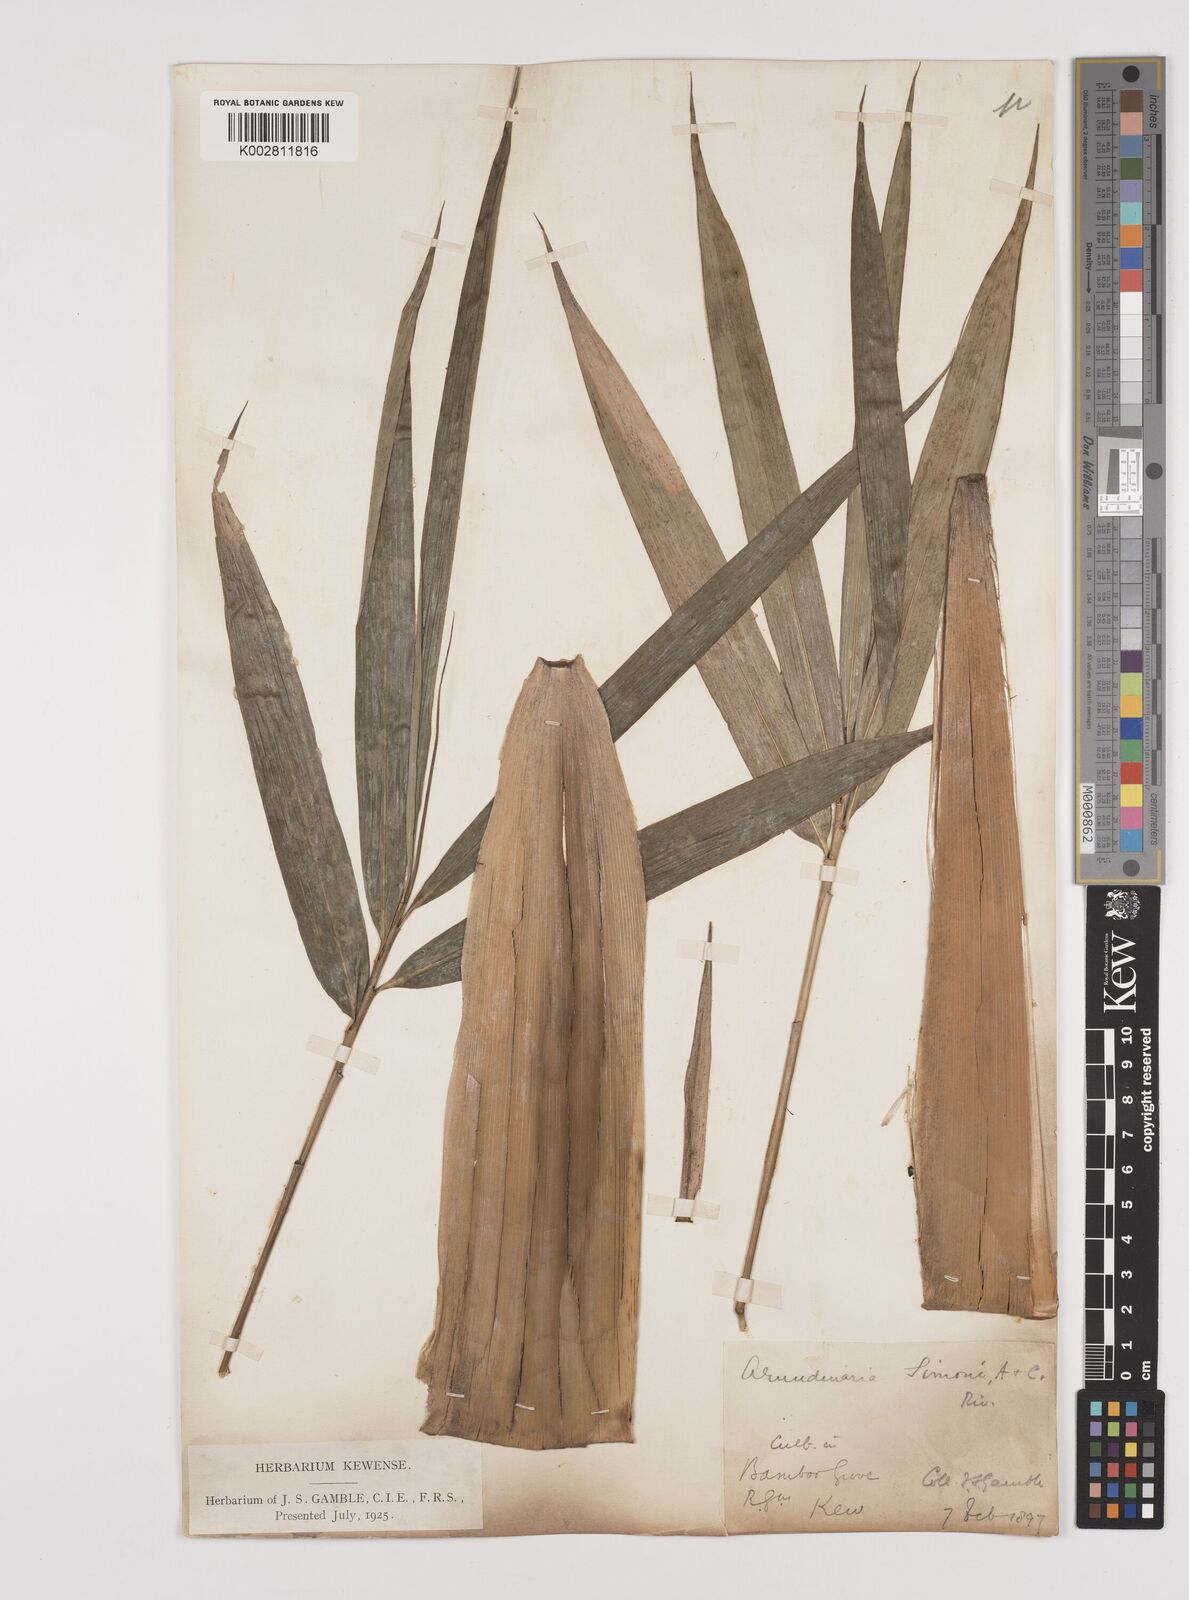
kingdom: Plantae
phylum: Tracheophyta
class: Liliopsida
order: Poales
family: Poaceae
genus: Pleioblastus
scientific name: Pleioblastus simonii
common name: Simon bamboo
